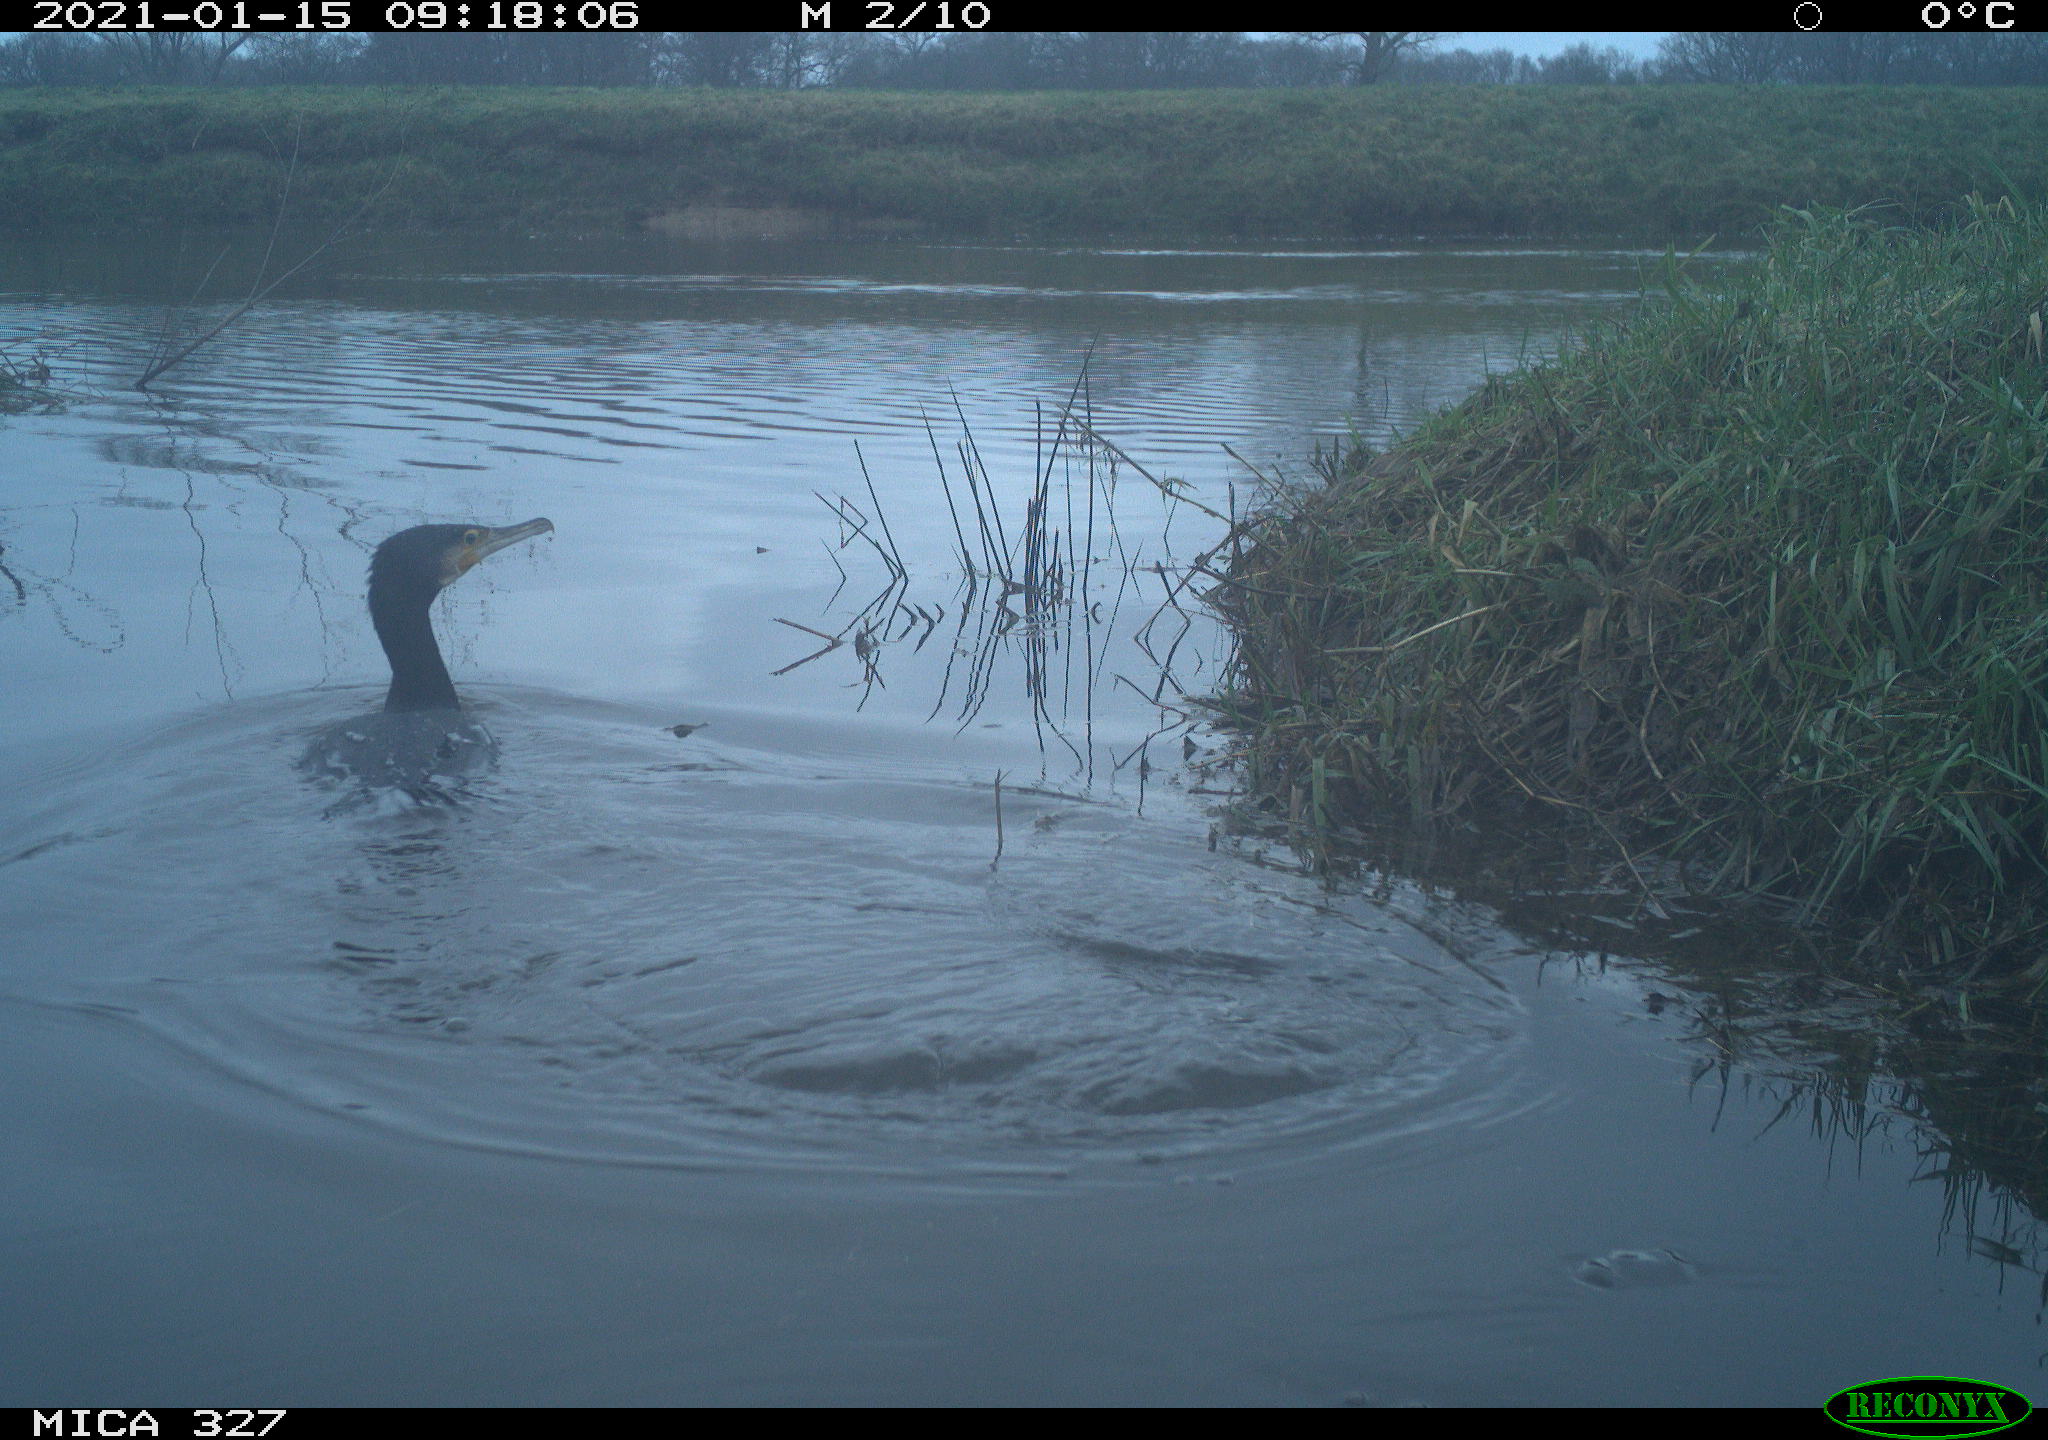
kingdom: Animalia
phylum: Chordata
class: Aves
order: Suliformes
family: Phalacrocoracidae
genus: Phalacrocorax
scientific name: Phalacrocorax carbo
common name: Great cormorant
